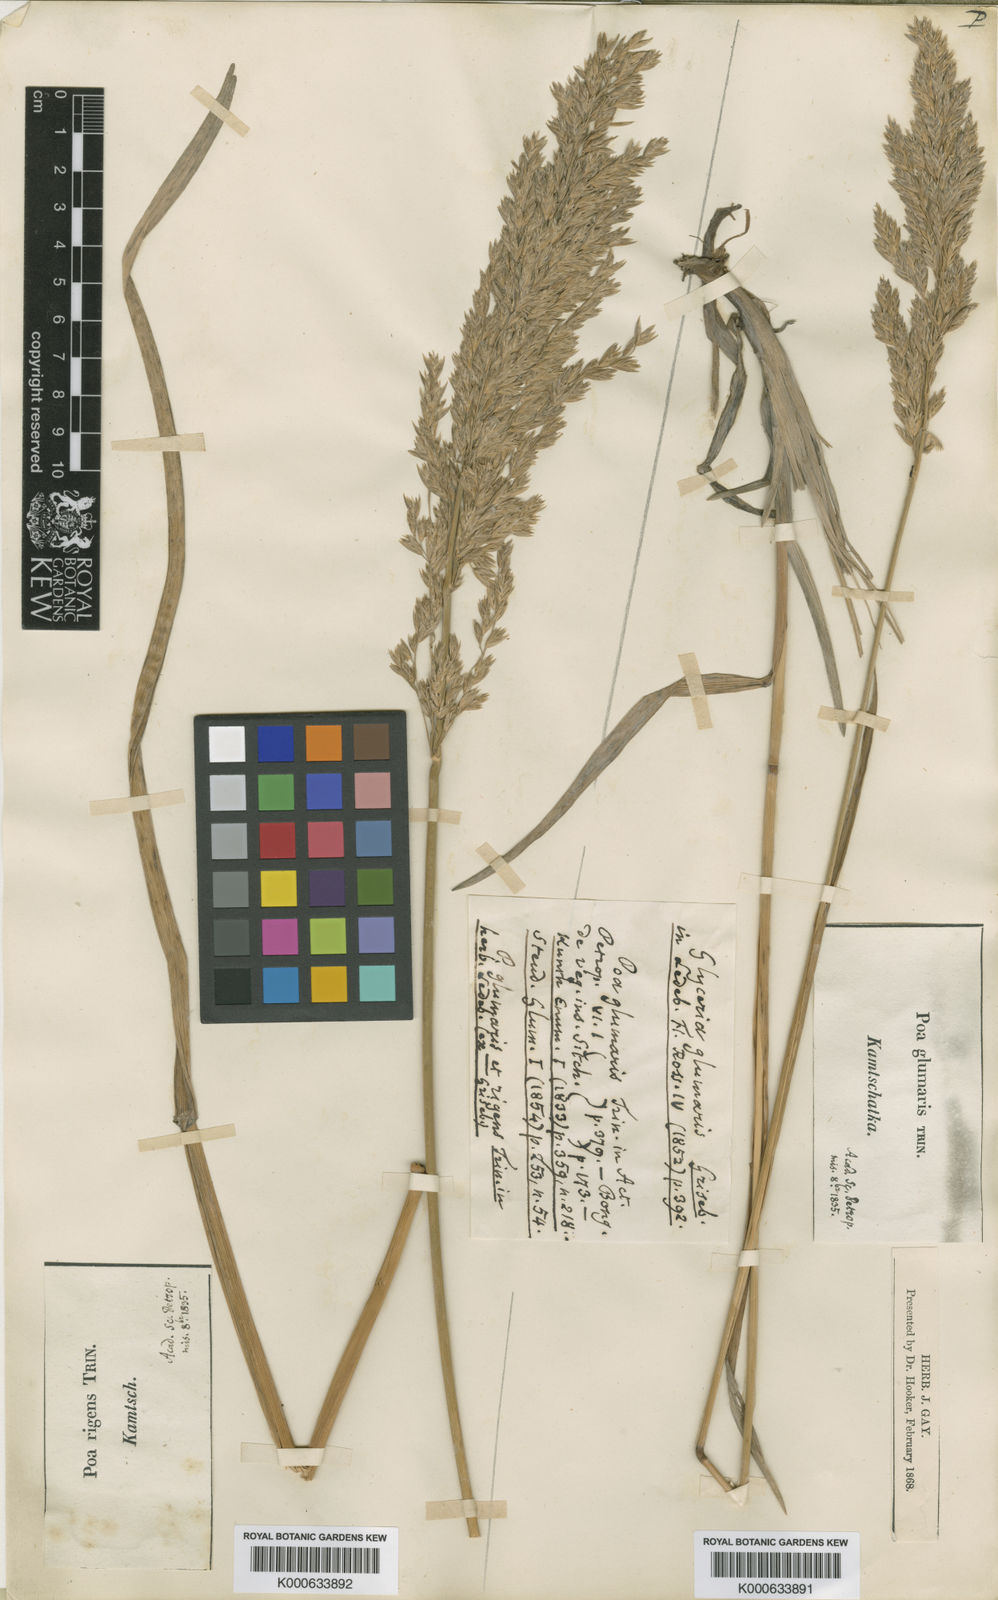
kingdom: Plantae
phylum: Tracheophyta
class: Liliopsida
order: Poales
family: Poaceae
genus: Arctopoa
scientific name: Arctopoa eminens
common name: Eminent bluegrass
